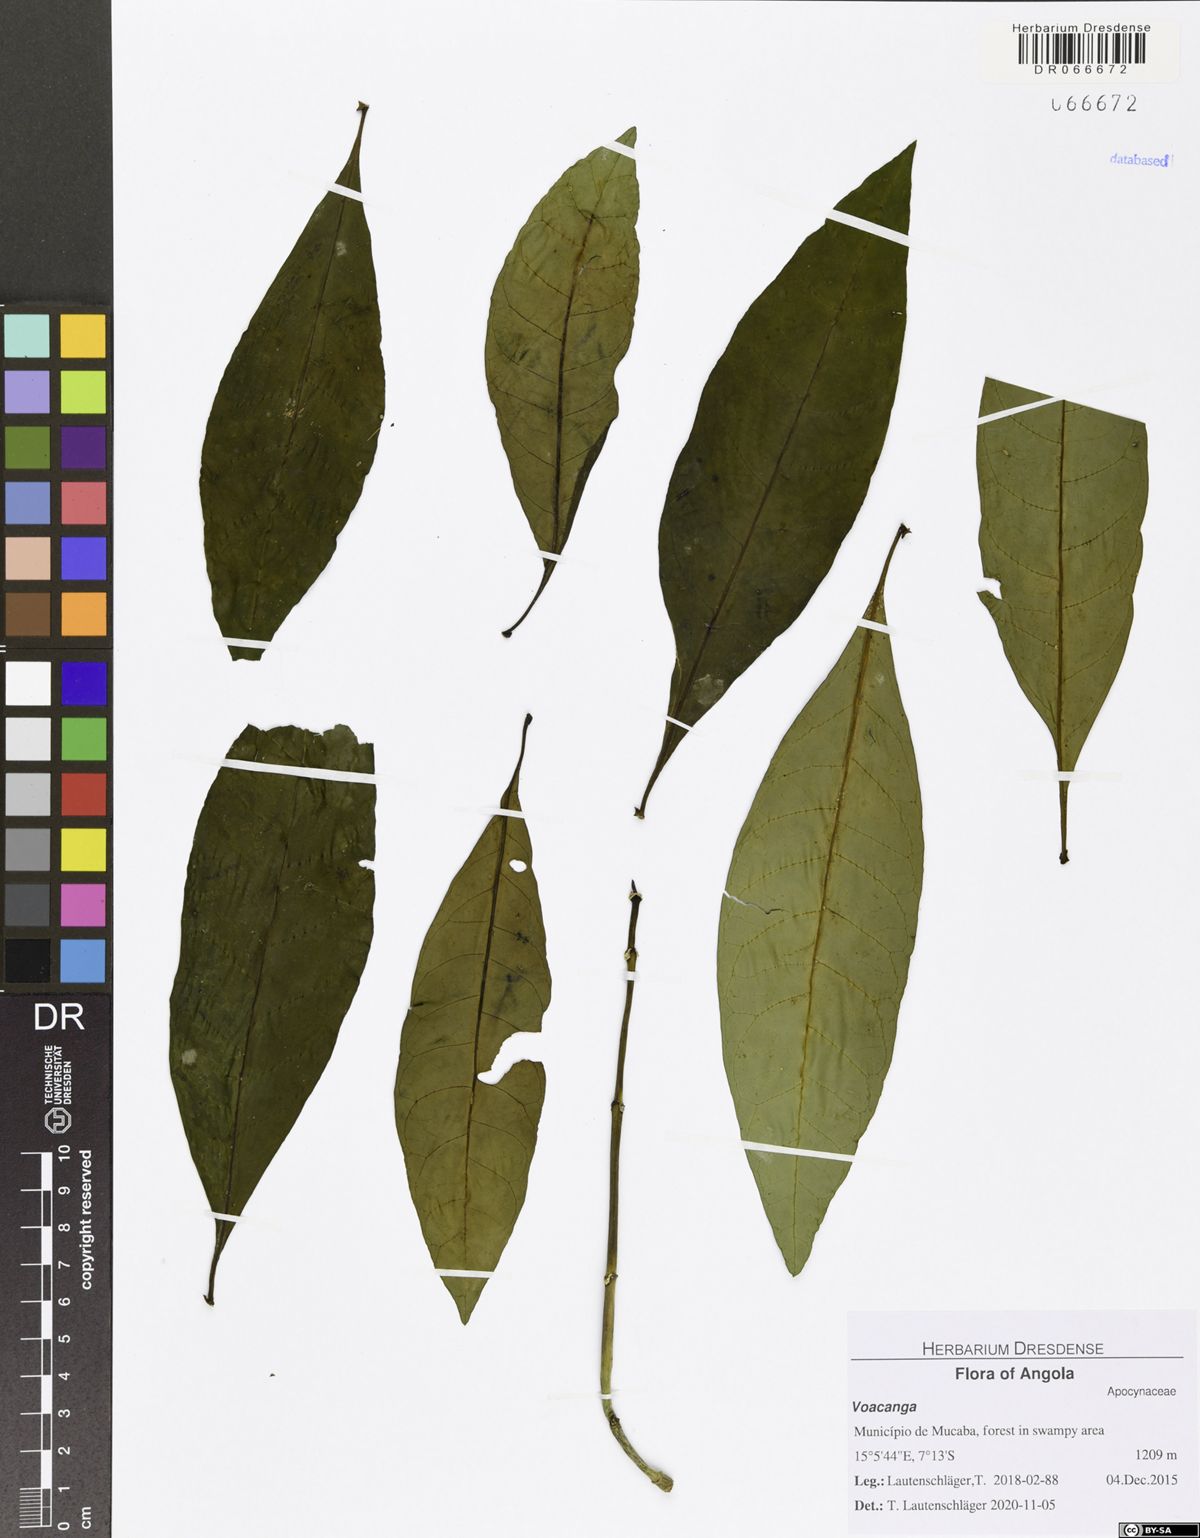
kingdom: Plantae
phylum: Tracheophyta
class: Magnoliopsida
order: Gentianales
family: Apocynaceae
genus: Voacanga
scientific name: Voacanga africana
